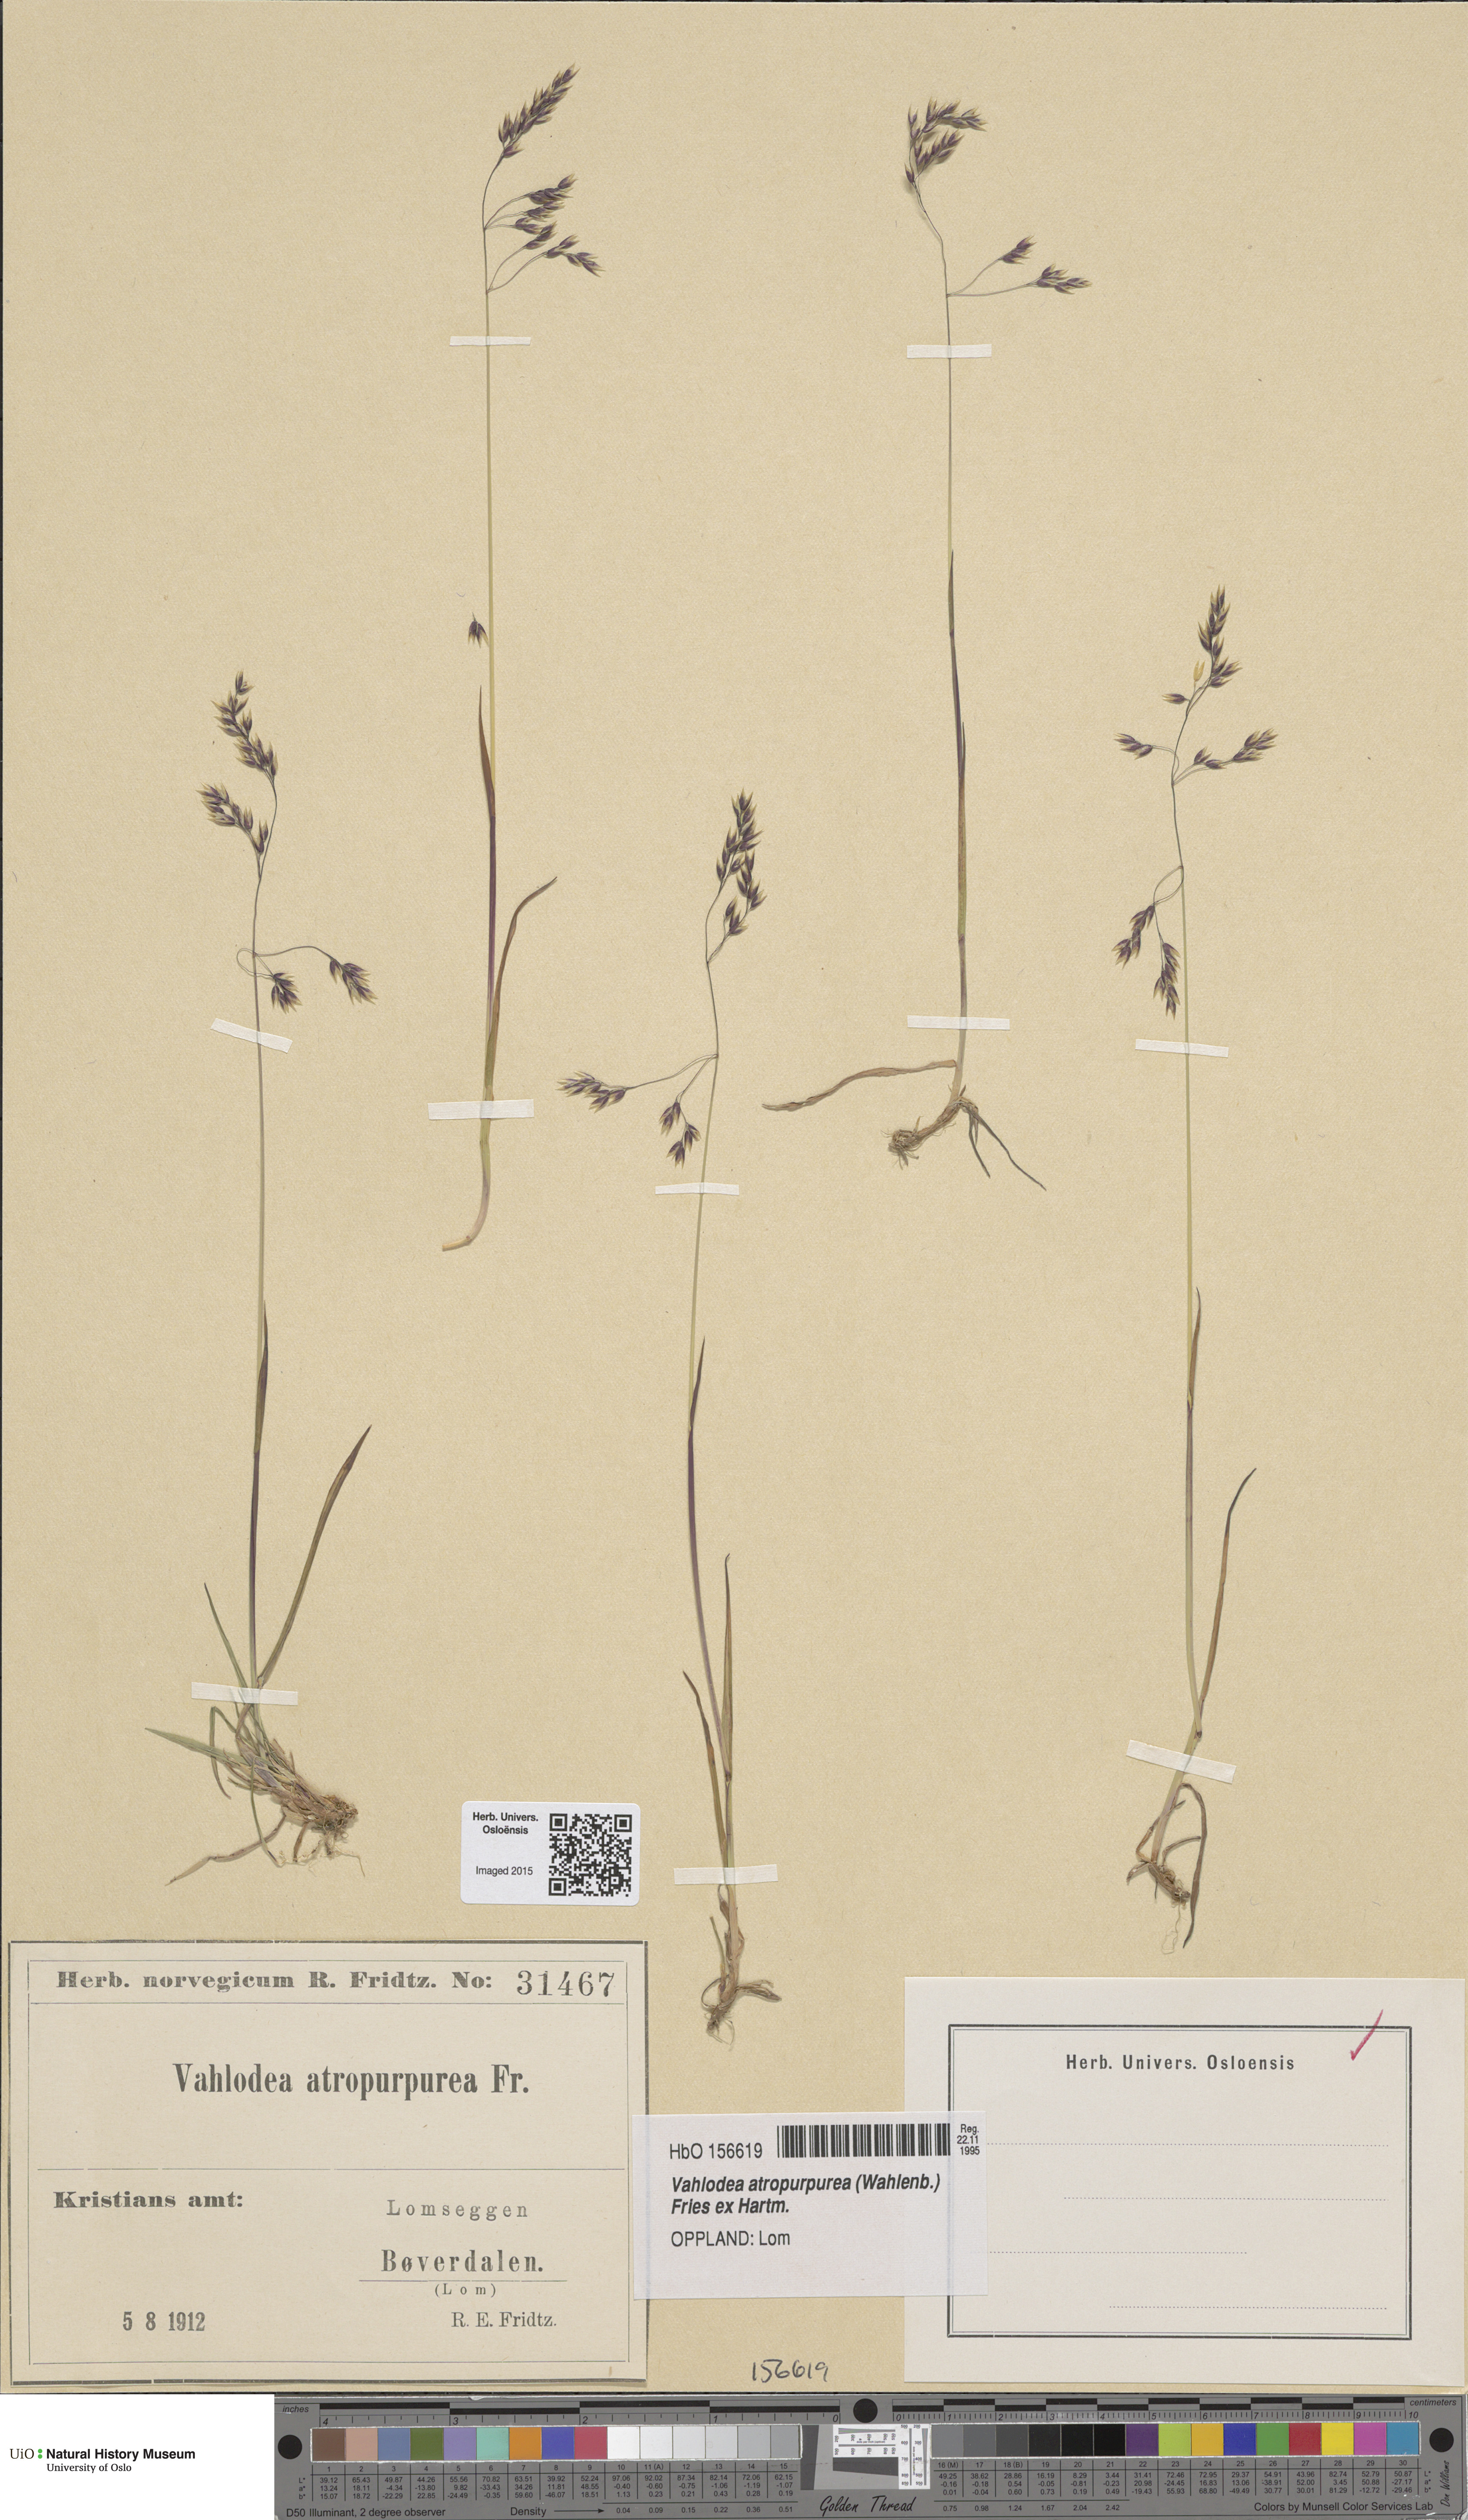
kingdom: Plantae
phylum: Tracheophyta
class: Liliopsida
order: Poales
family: Poaceae
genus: Vahlodea
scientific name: Vahlodea atropurpurea
